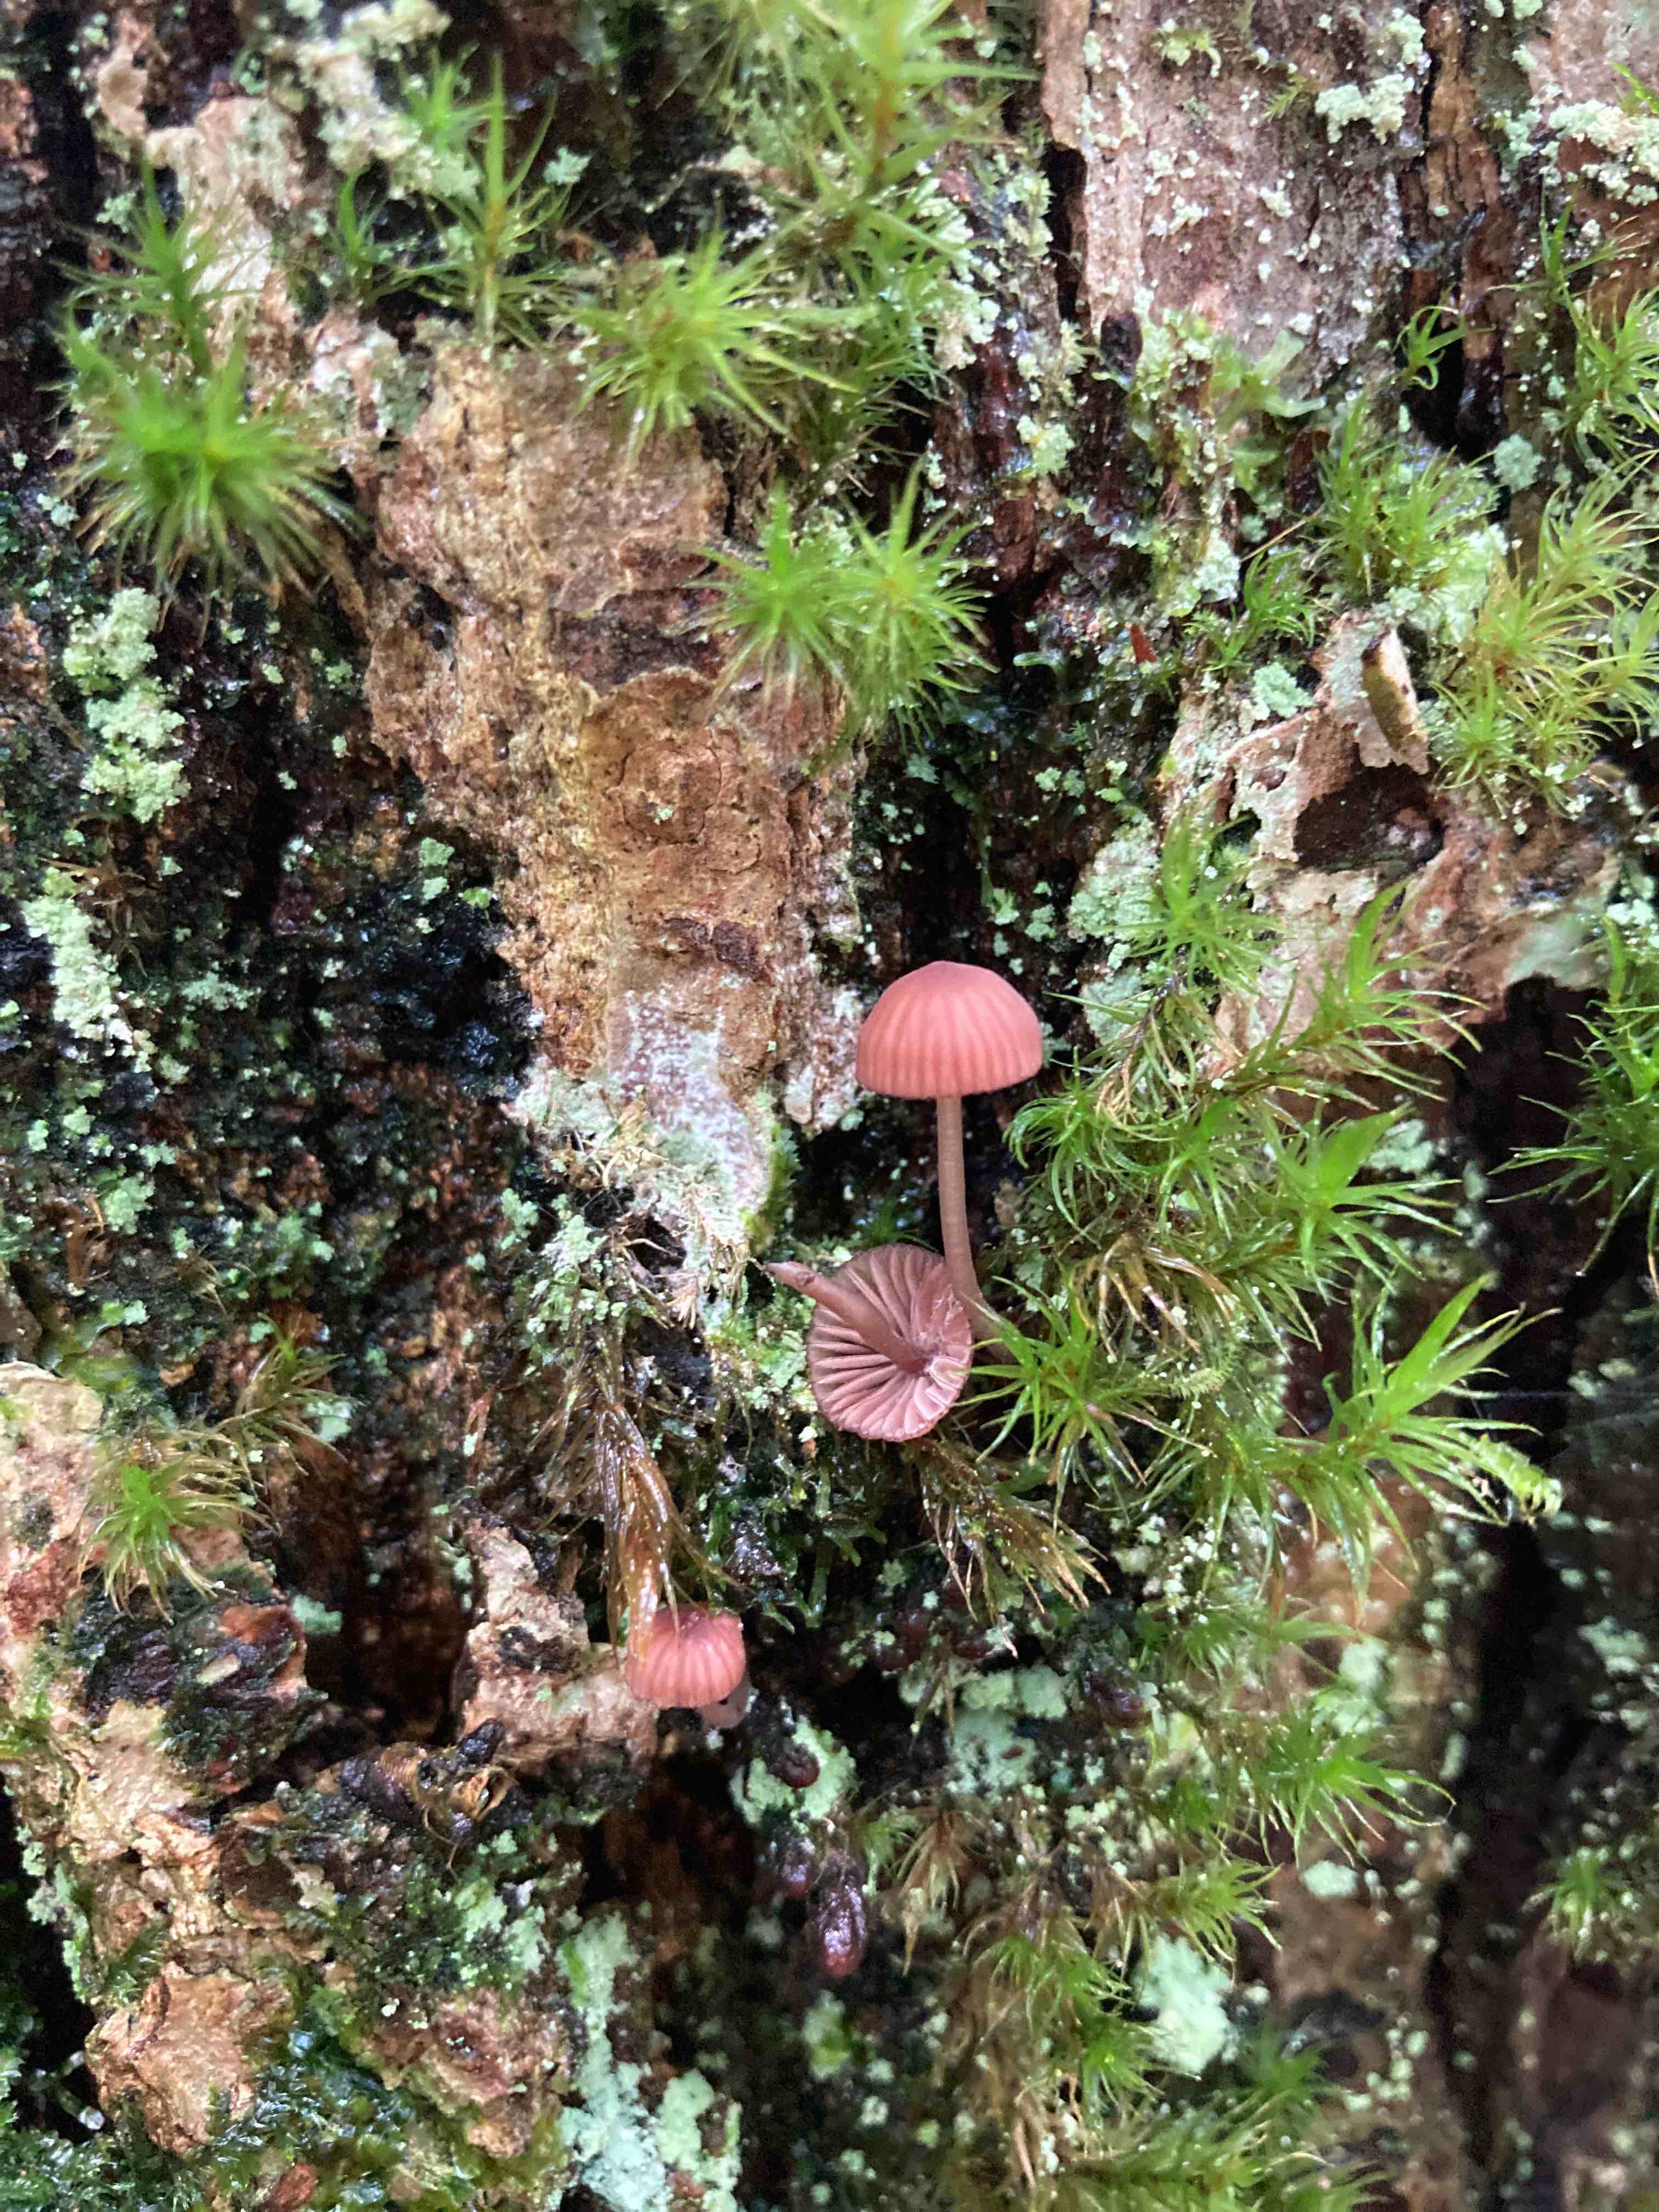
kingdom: Fungi
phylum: Basidiomycota
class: Agaricomycetes
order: Agaricales
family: Mycenaceae
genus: Mycena
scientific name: Mycena sanguinolenta
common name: rødmælket huesvamp
